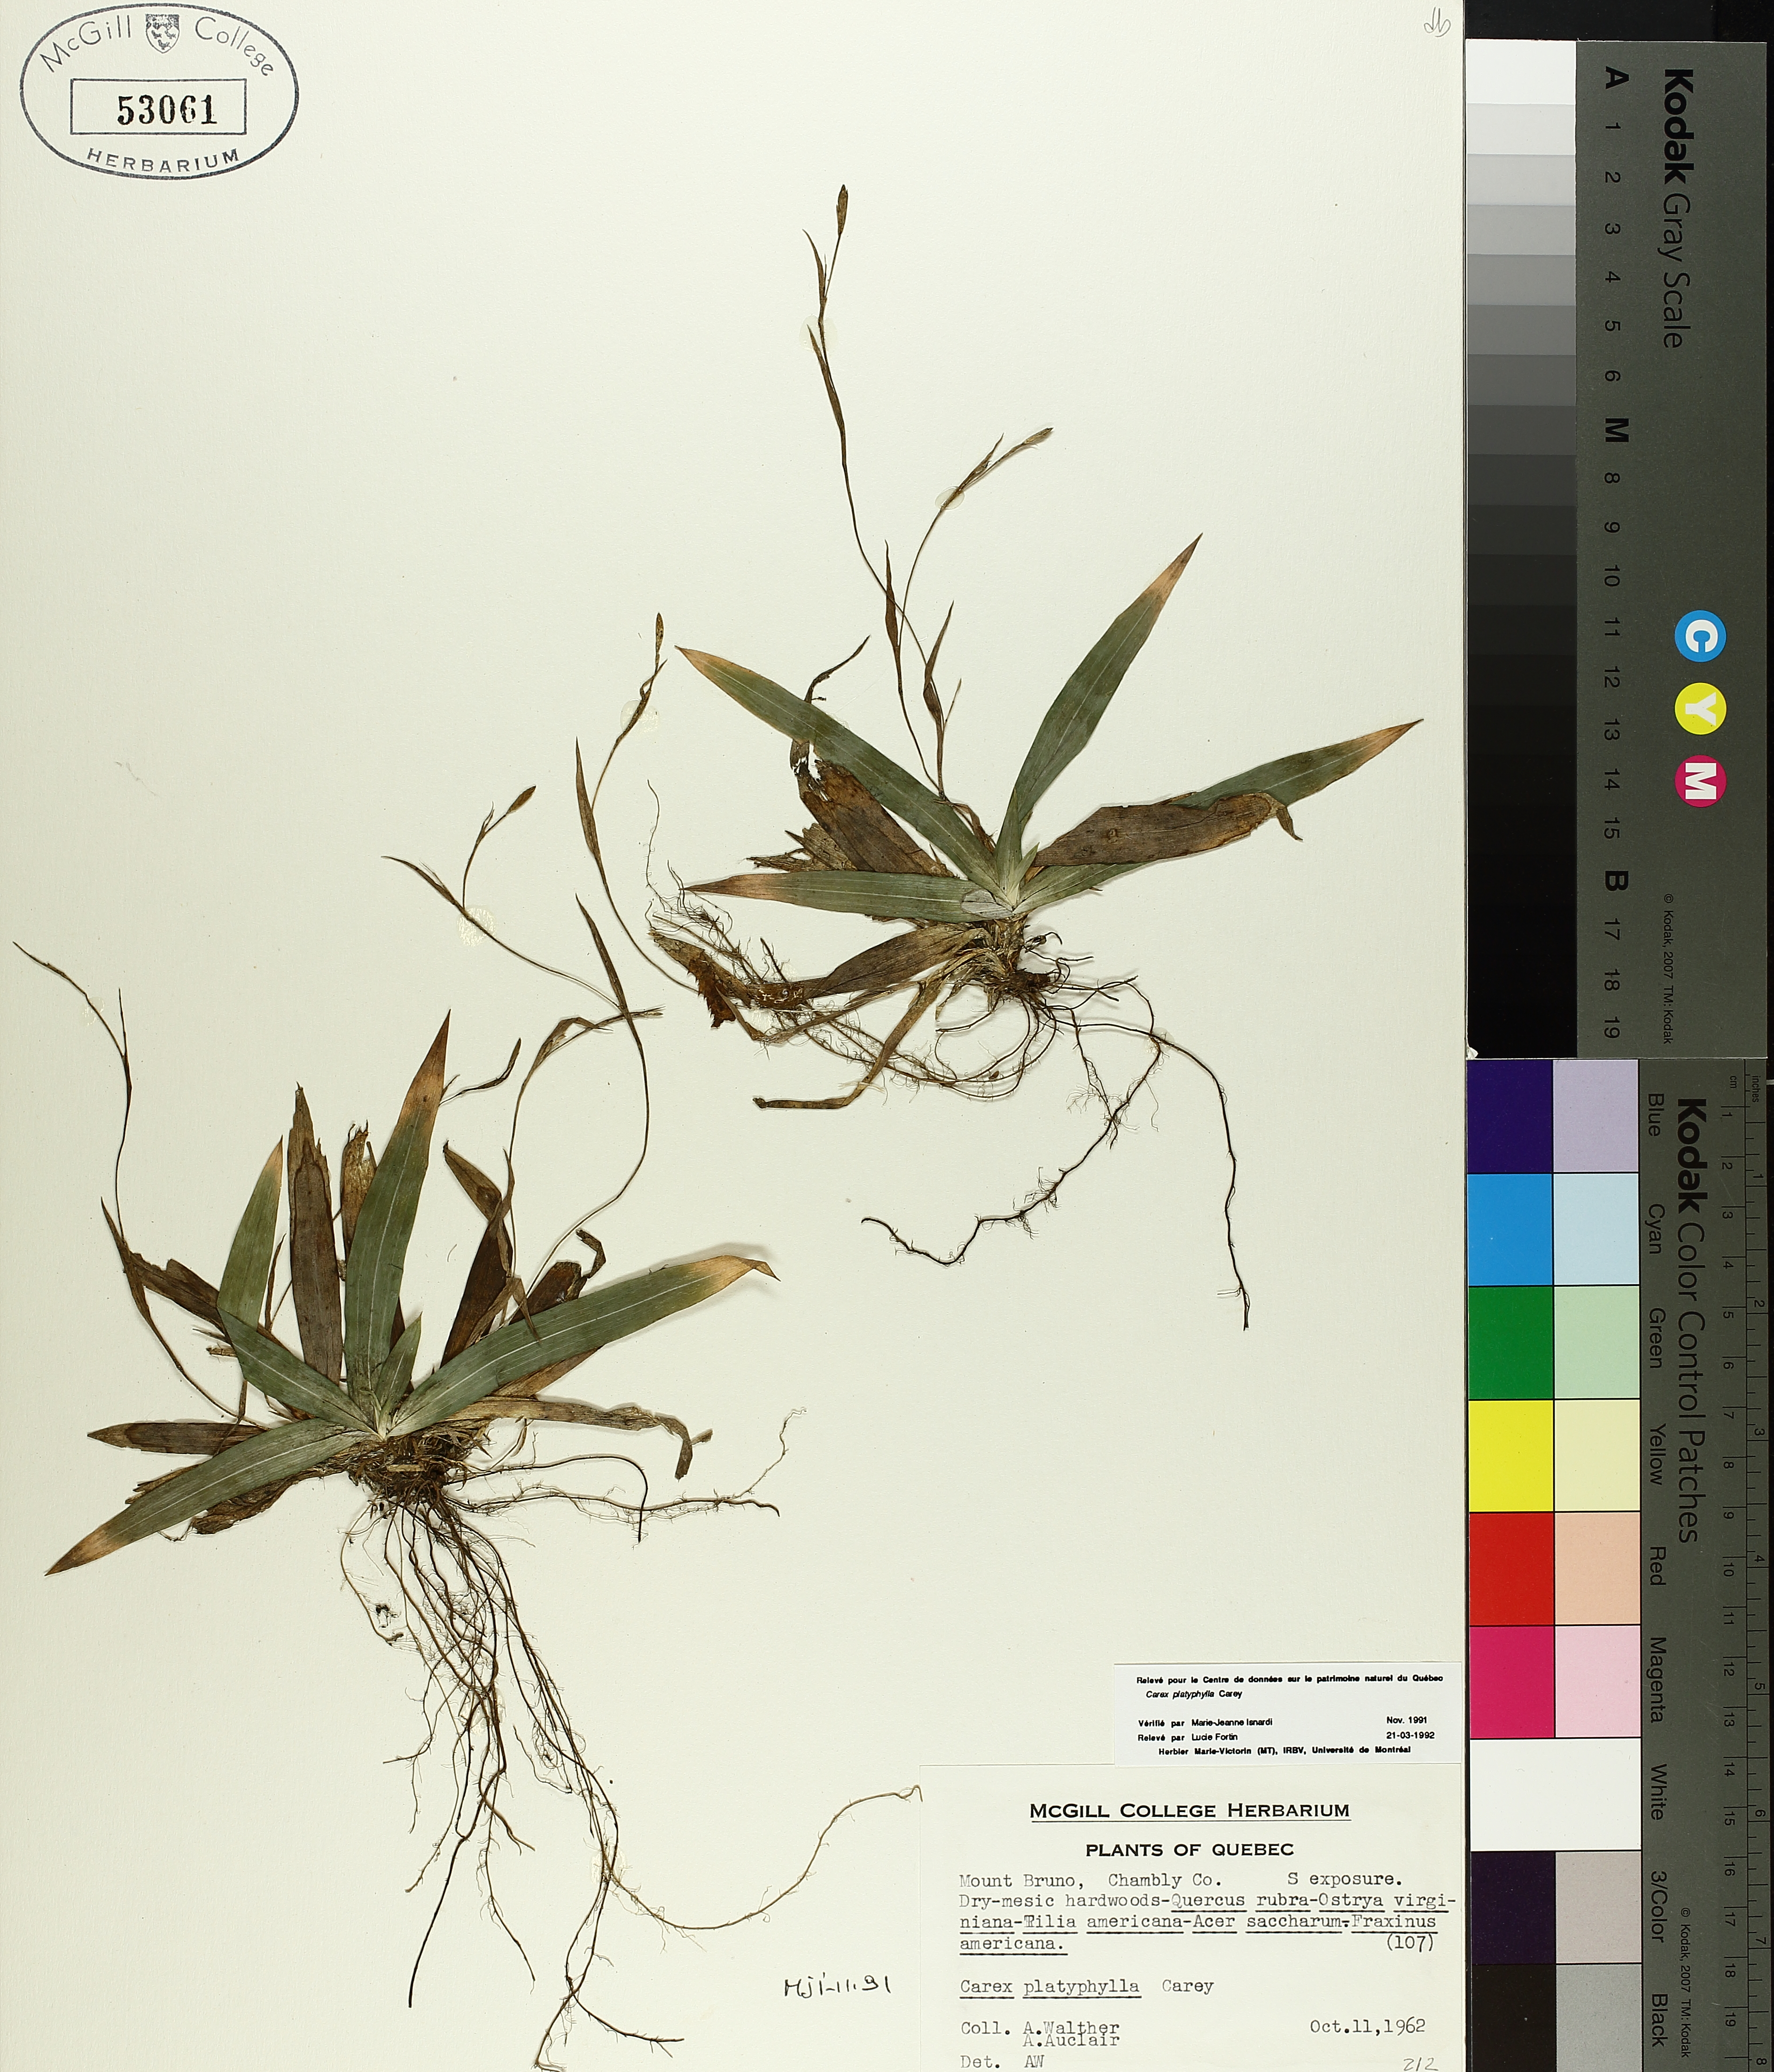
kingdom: Plantae
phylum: Tracheophyta
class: Liliopsida
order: Poales
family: Cyperaceae
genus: Carex
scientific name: Carex platyphylla
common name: Broad-leaved sedge
